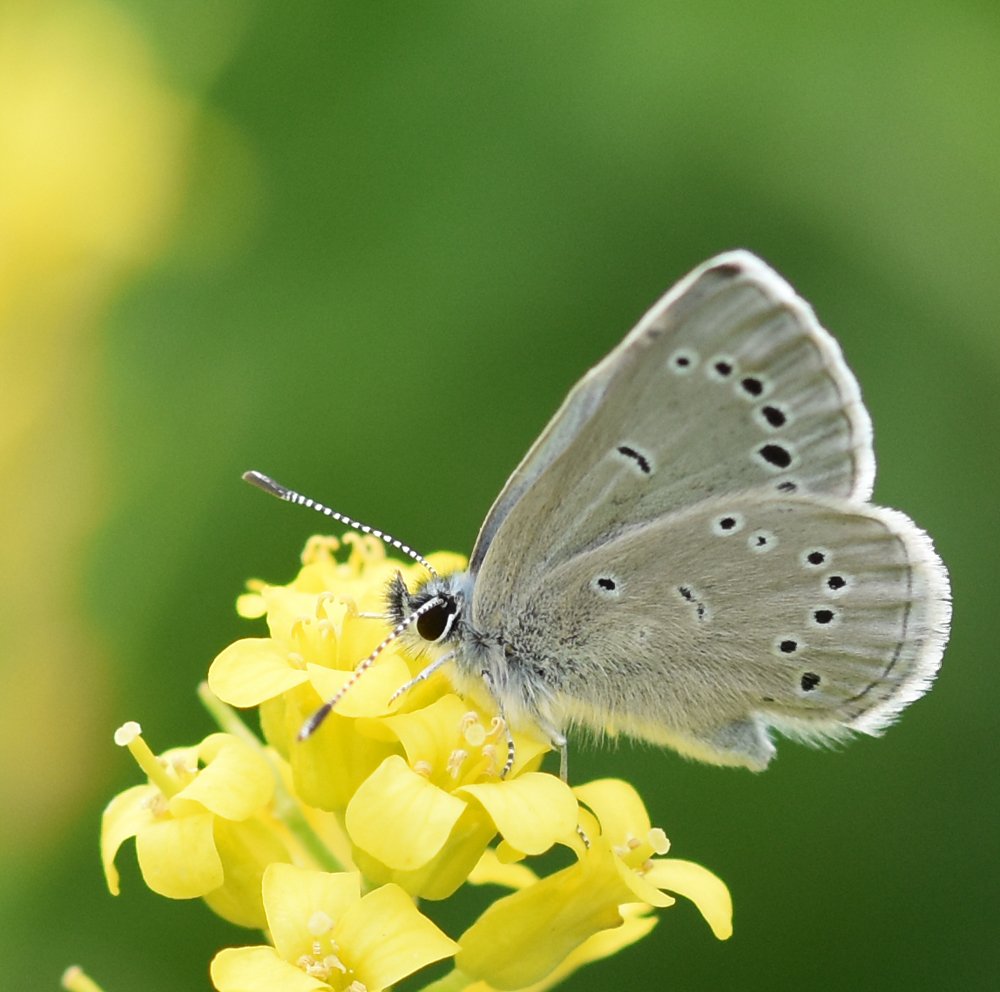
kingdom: Animalia
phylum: Arthropoda
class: Insecta
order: Lepidoptera
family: Lycaenidae
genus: Glaucopsyche
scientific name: Glaucopsyche lygdamus
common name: Silvery Blue
